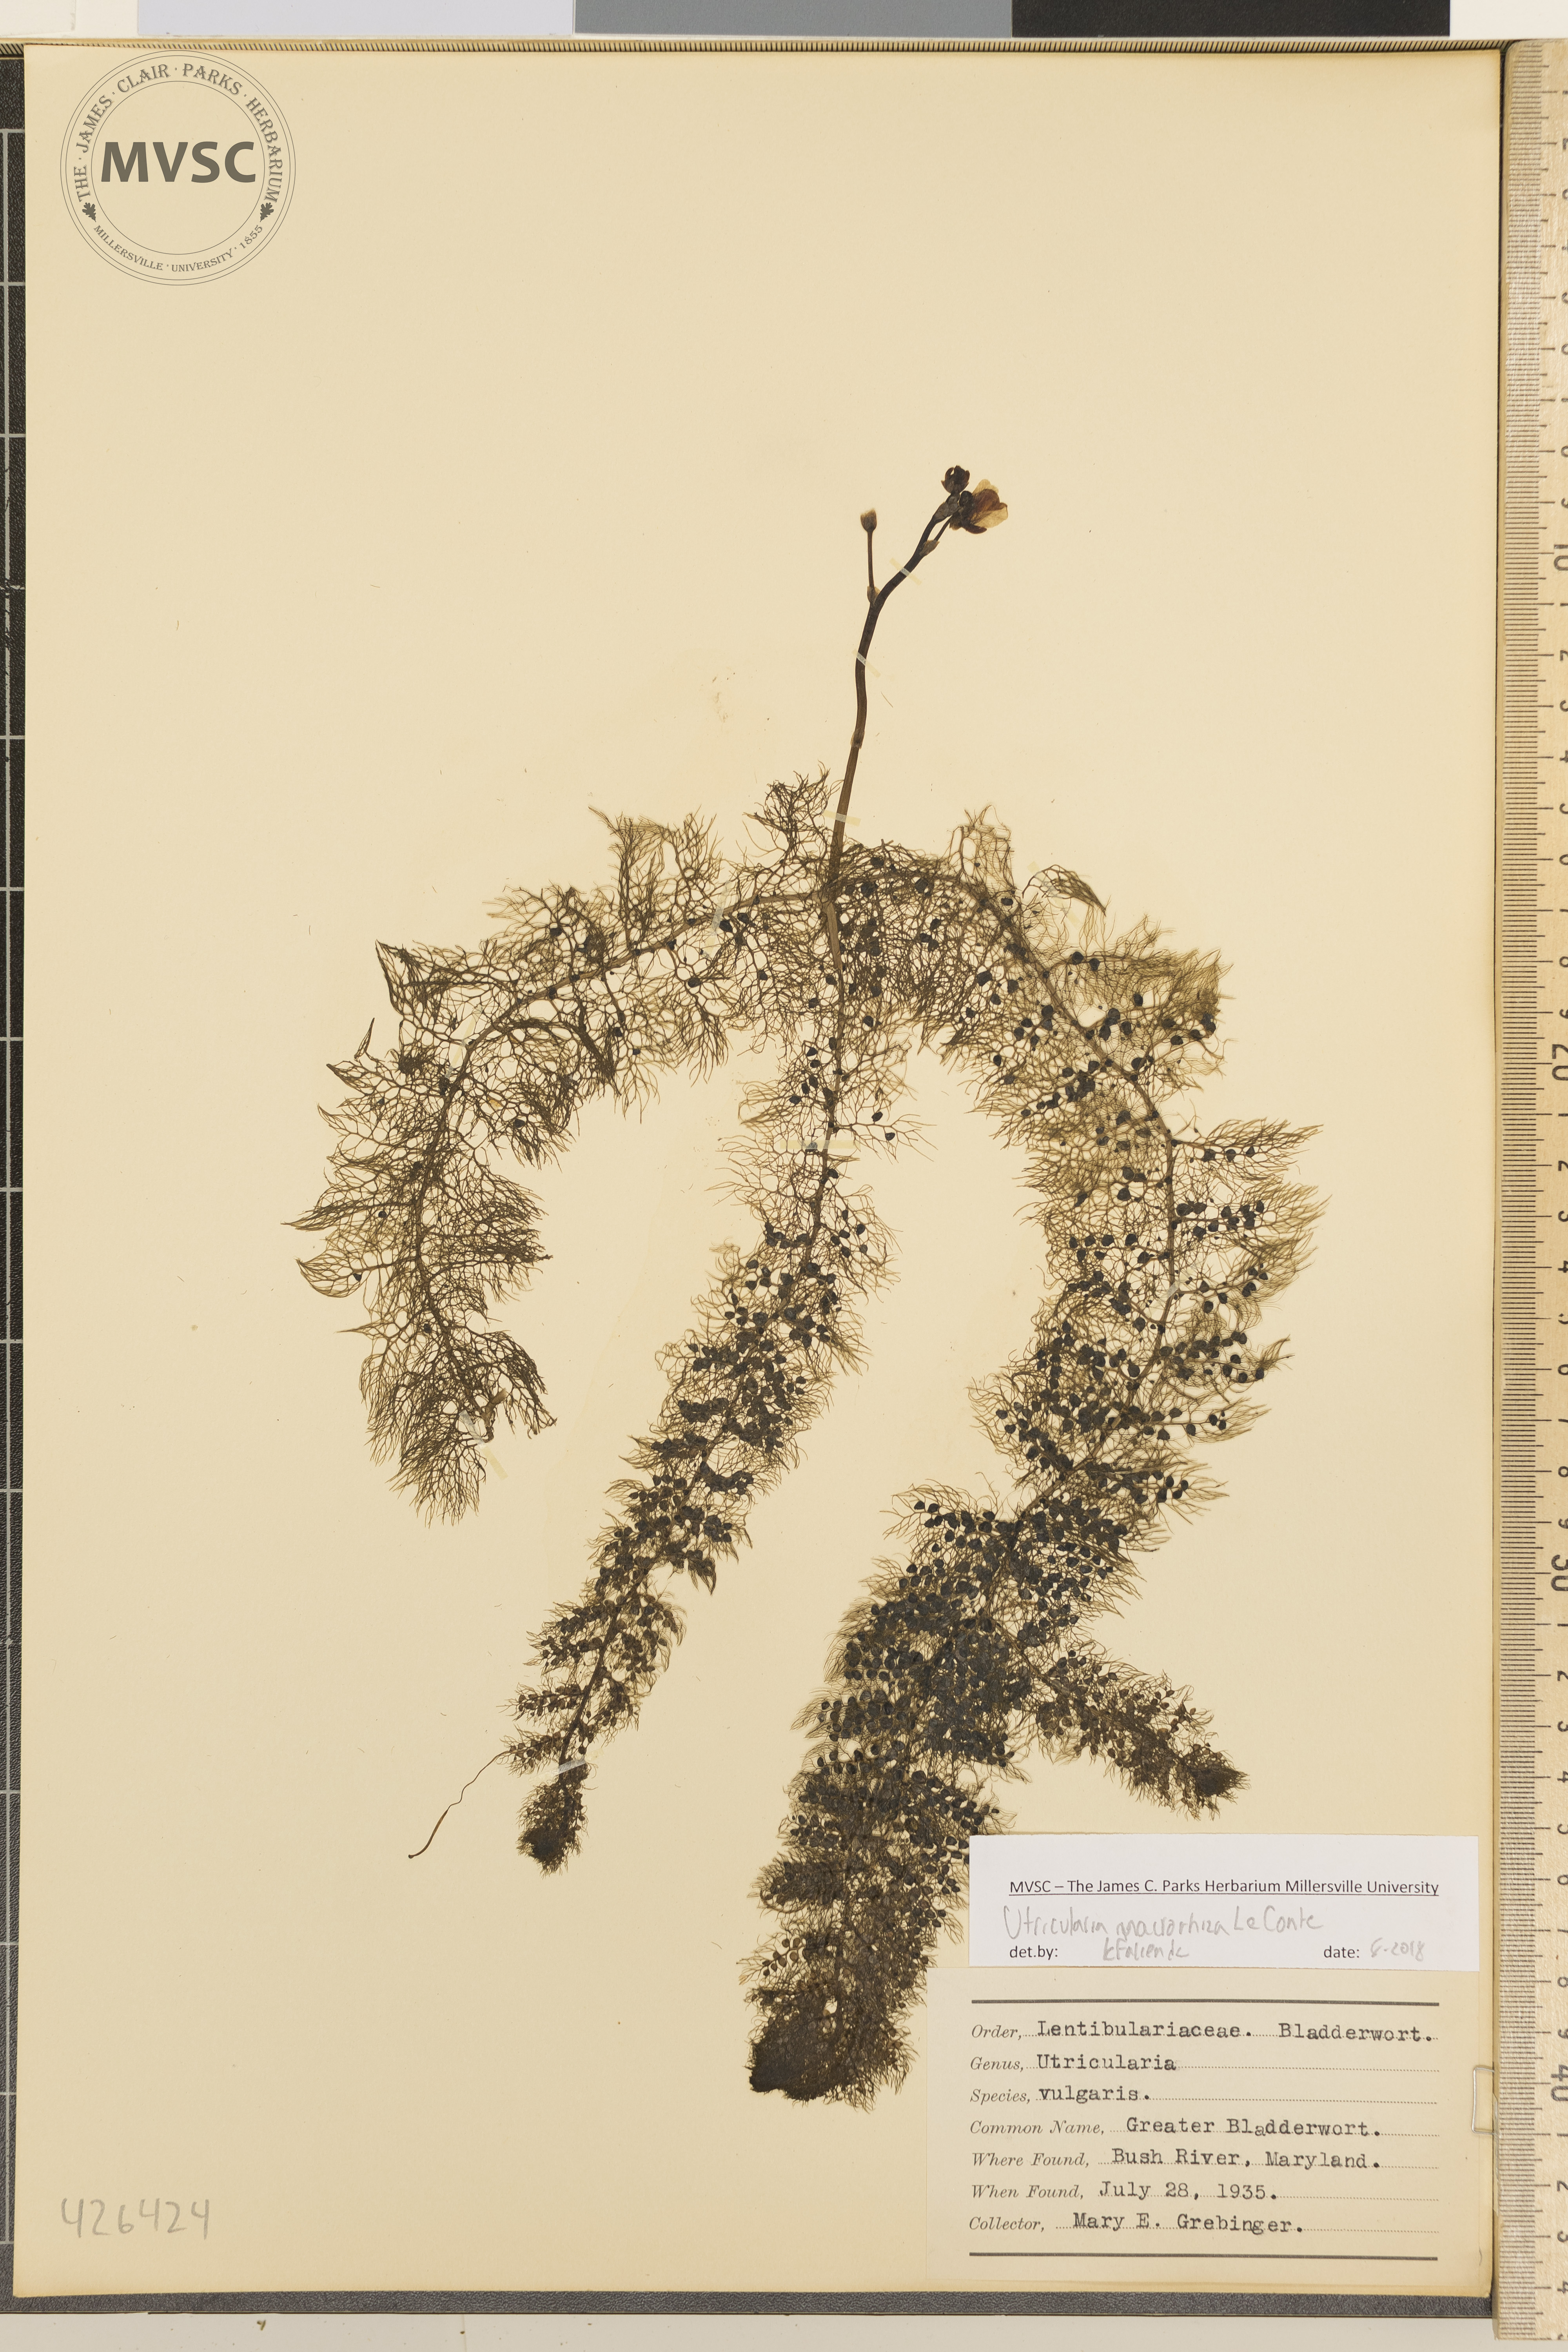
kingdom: Plantae
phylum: Tracheophyta
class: Magnoliopsida
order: Lamiales
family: Lentibulariaceae
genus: Utricularia
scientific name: Utricularia macrorhiza
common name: Greater Bladderwort
